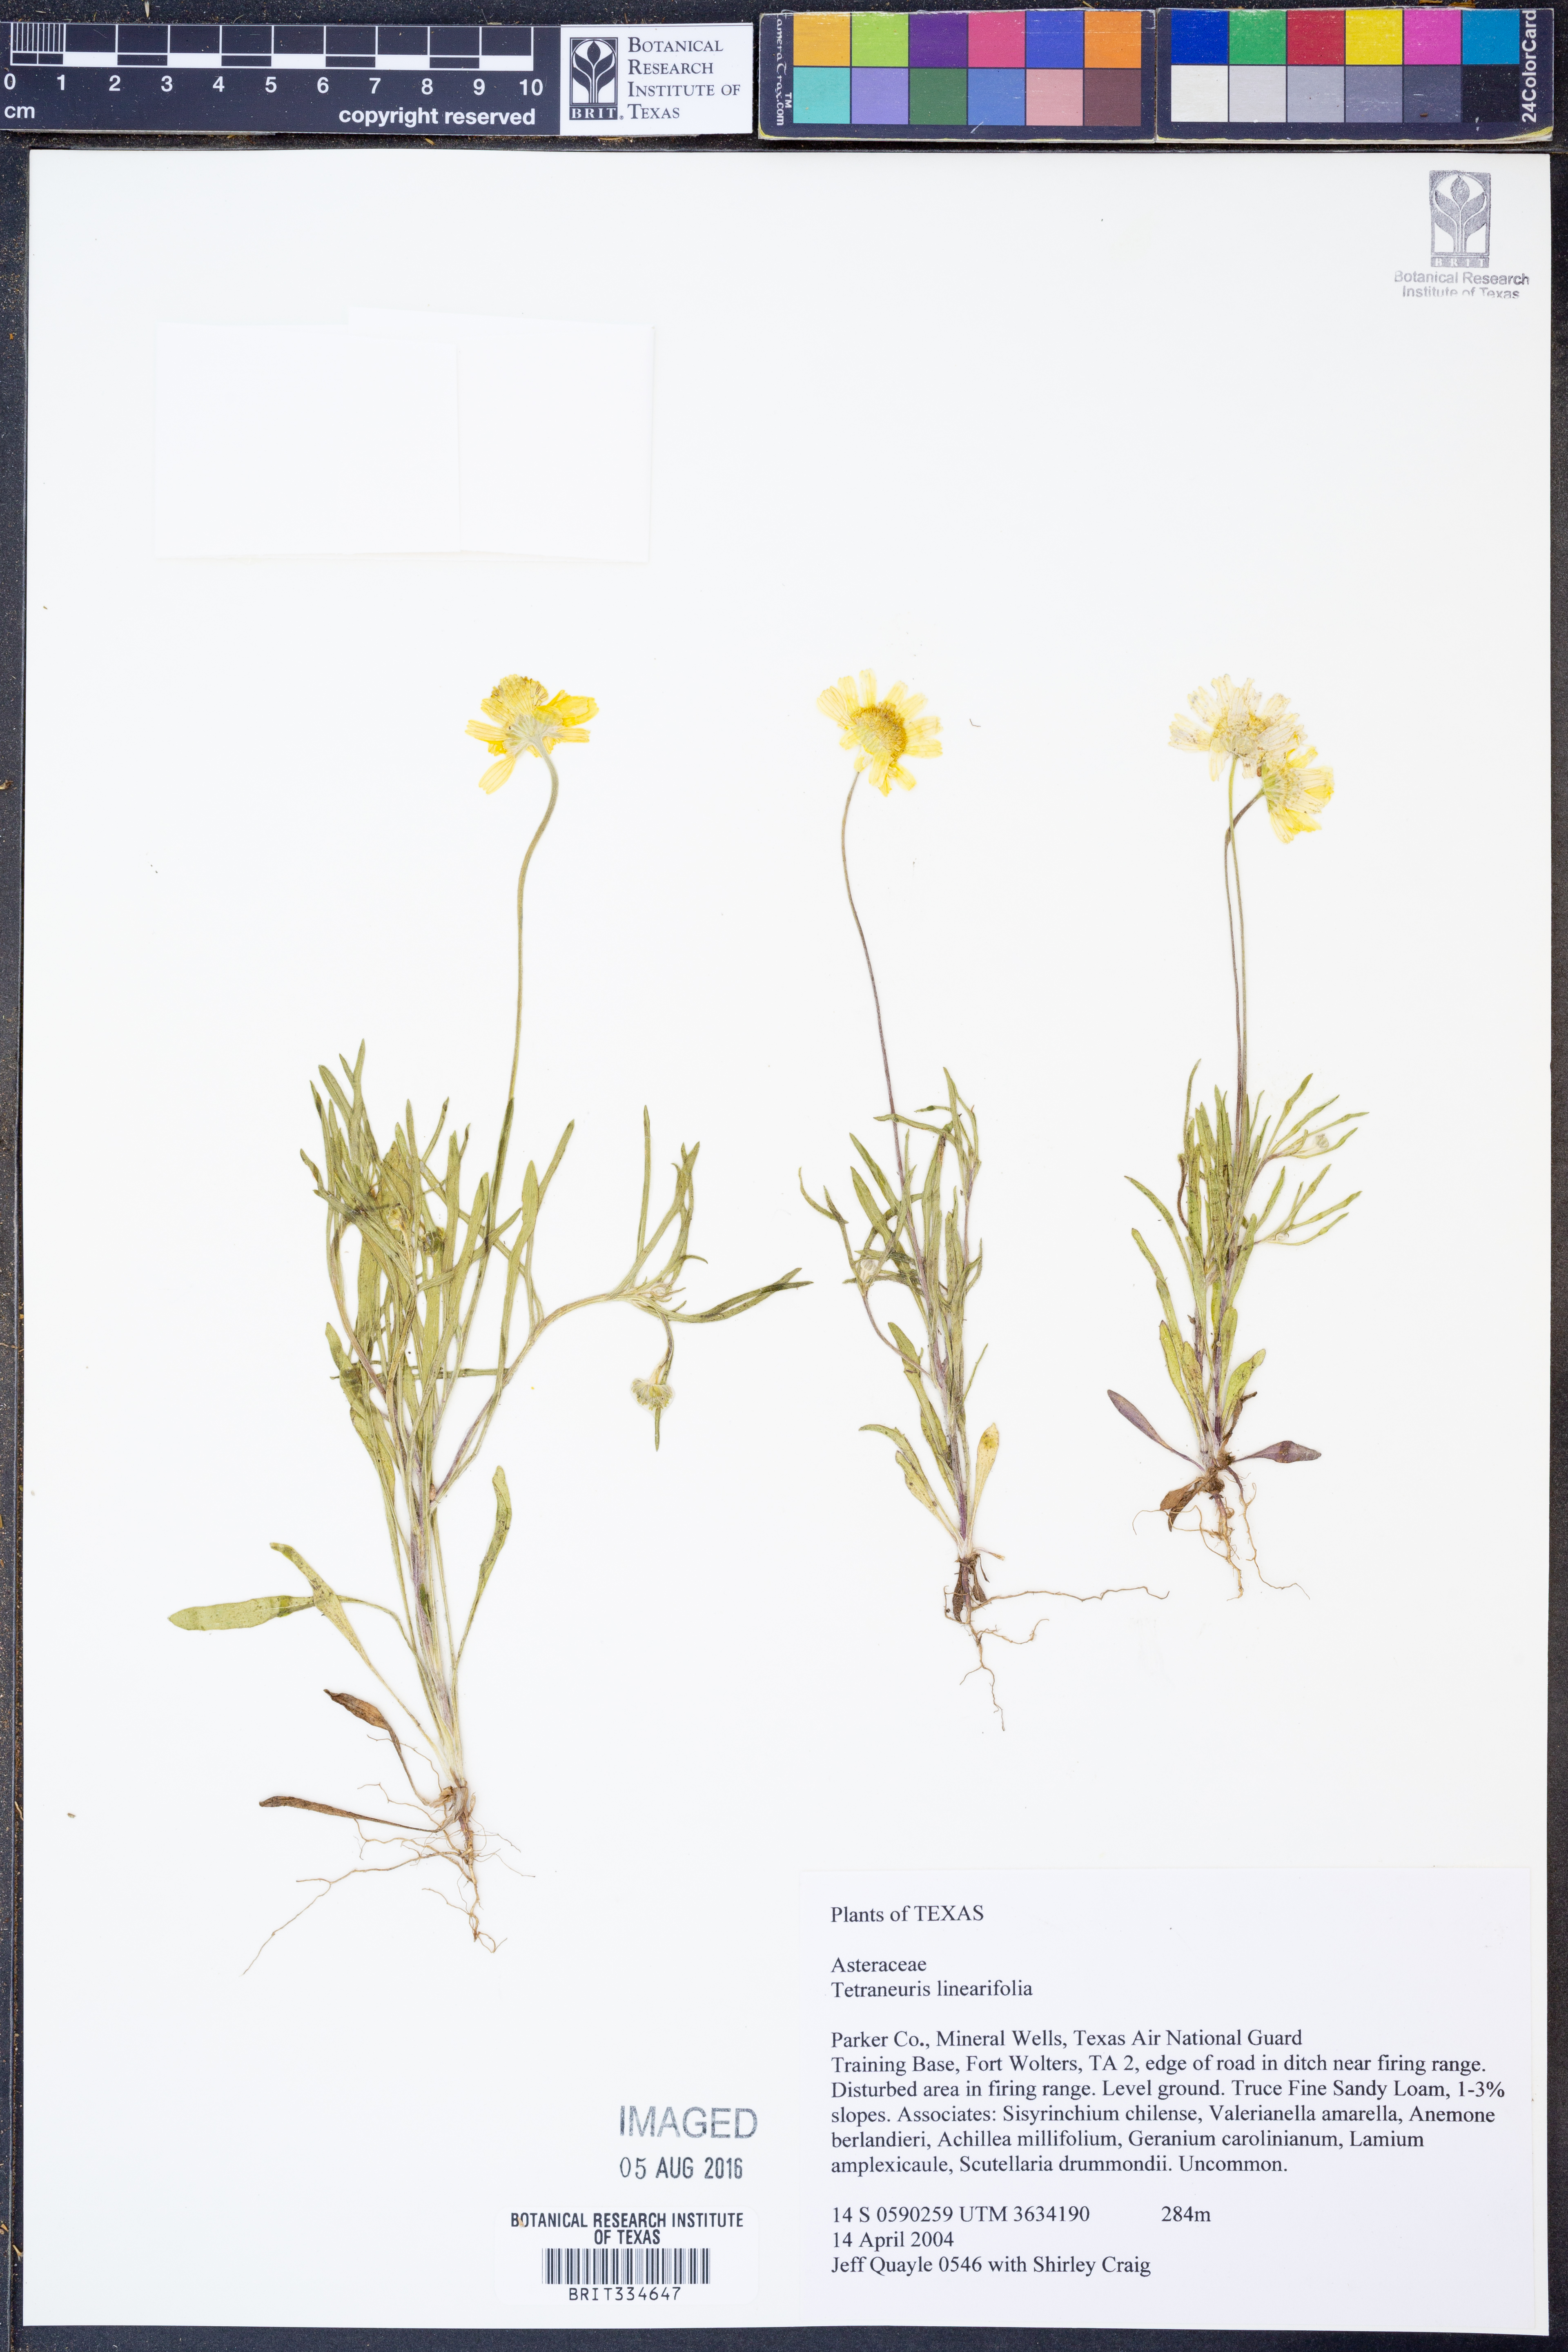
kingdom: Plantae
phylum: Tracheophyta
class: Magnoliopsida
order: Asterales
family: Asteraceae
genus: Tetraneuris
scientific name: Tetraneuris linearifolia
